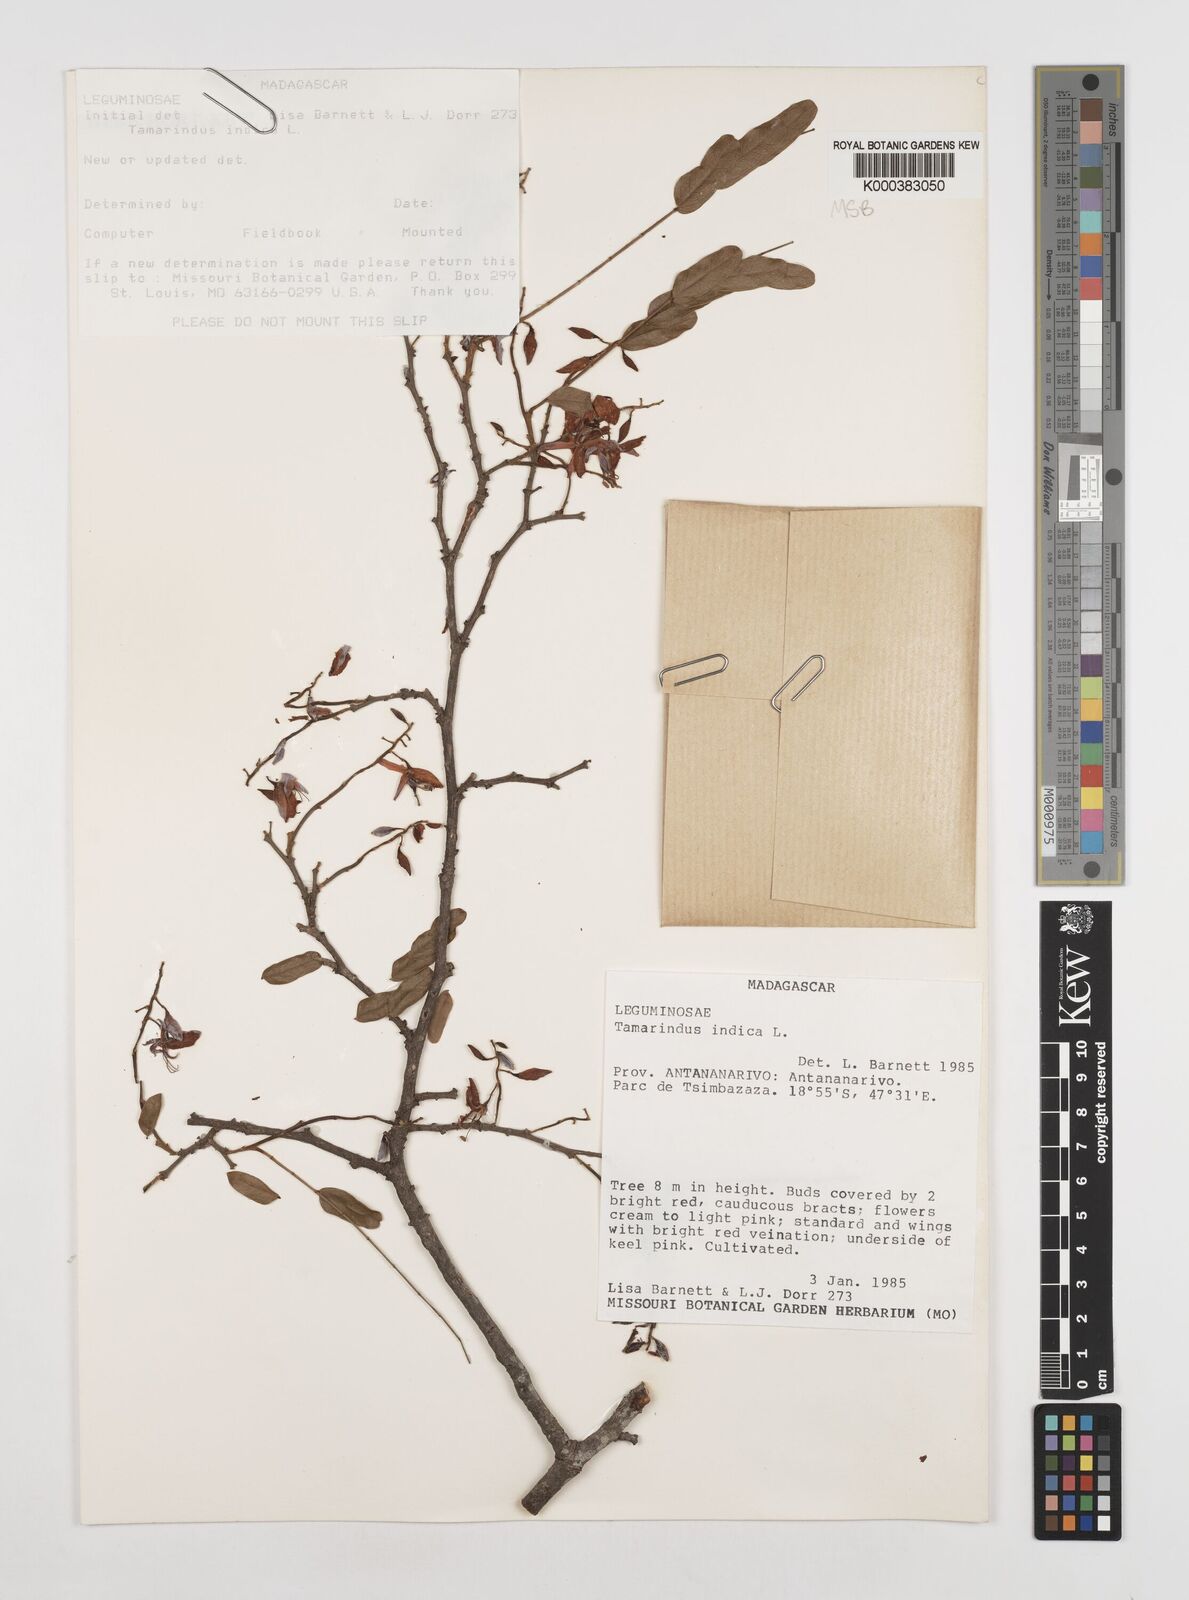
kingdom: Plantae
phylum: Tracheophyta
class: Magnoliopsida
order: Fabales
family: Fabaceae
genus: Tamarindus
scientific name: Tamarindus indica
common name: Tamarind
